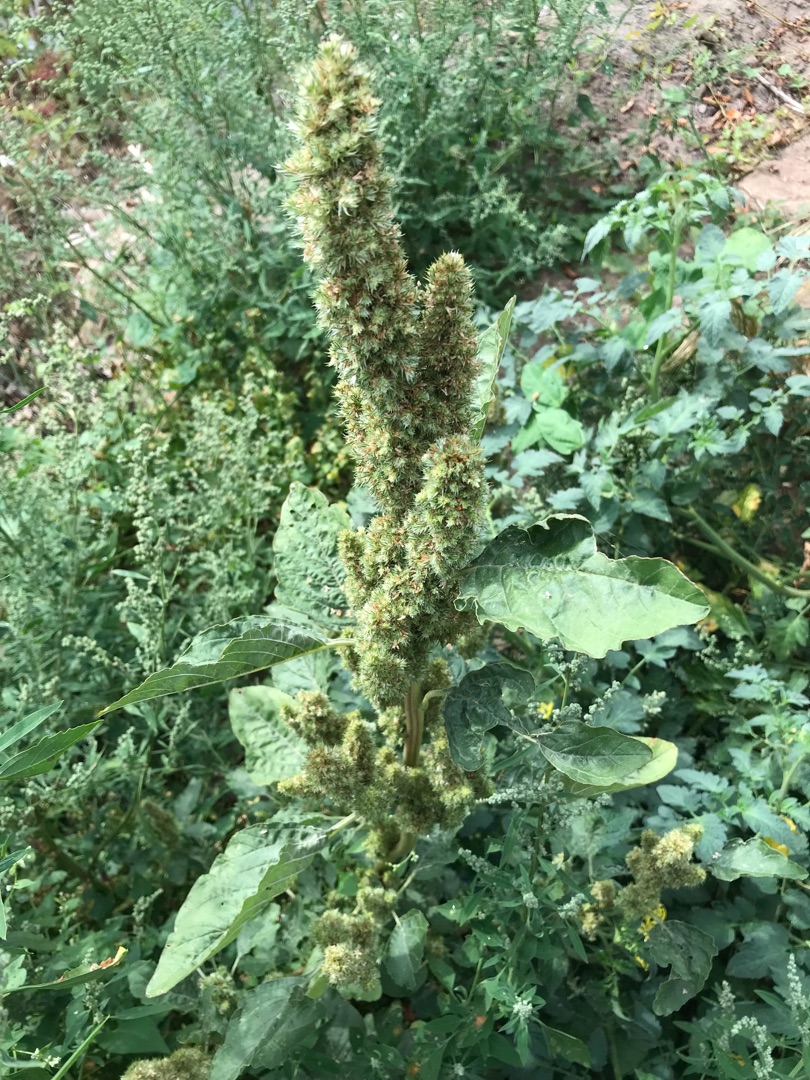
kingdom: Plantae
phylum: Tracheophyta
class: Magnoliopsida
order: Caryophyllales
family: Amaranthaceae
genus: Amaranthus
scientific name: Amaranthus
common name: Amarantslægten
